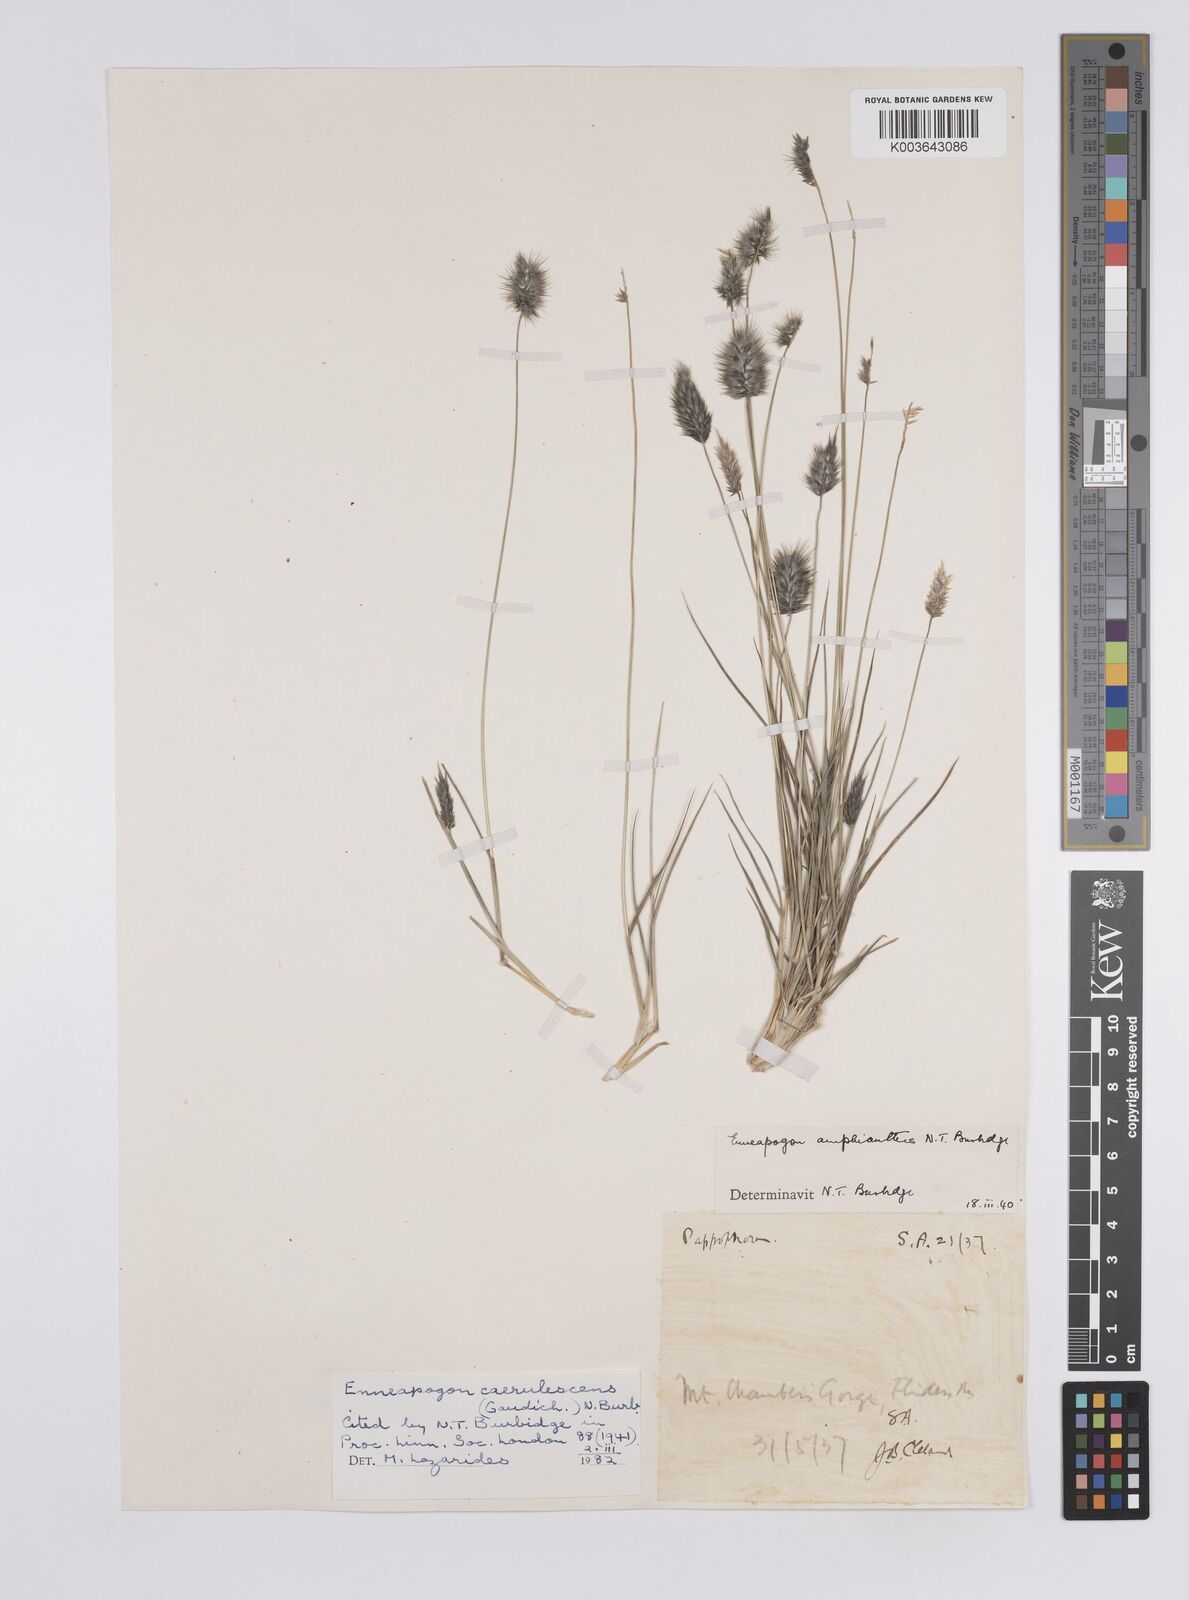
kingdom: Plantae
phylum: Tracheophyta
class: Liliopsida
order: Poales
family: Poaceae
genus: Enneapogon
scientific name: Enneapogon caerulescens
